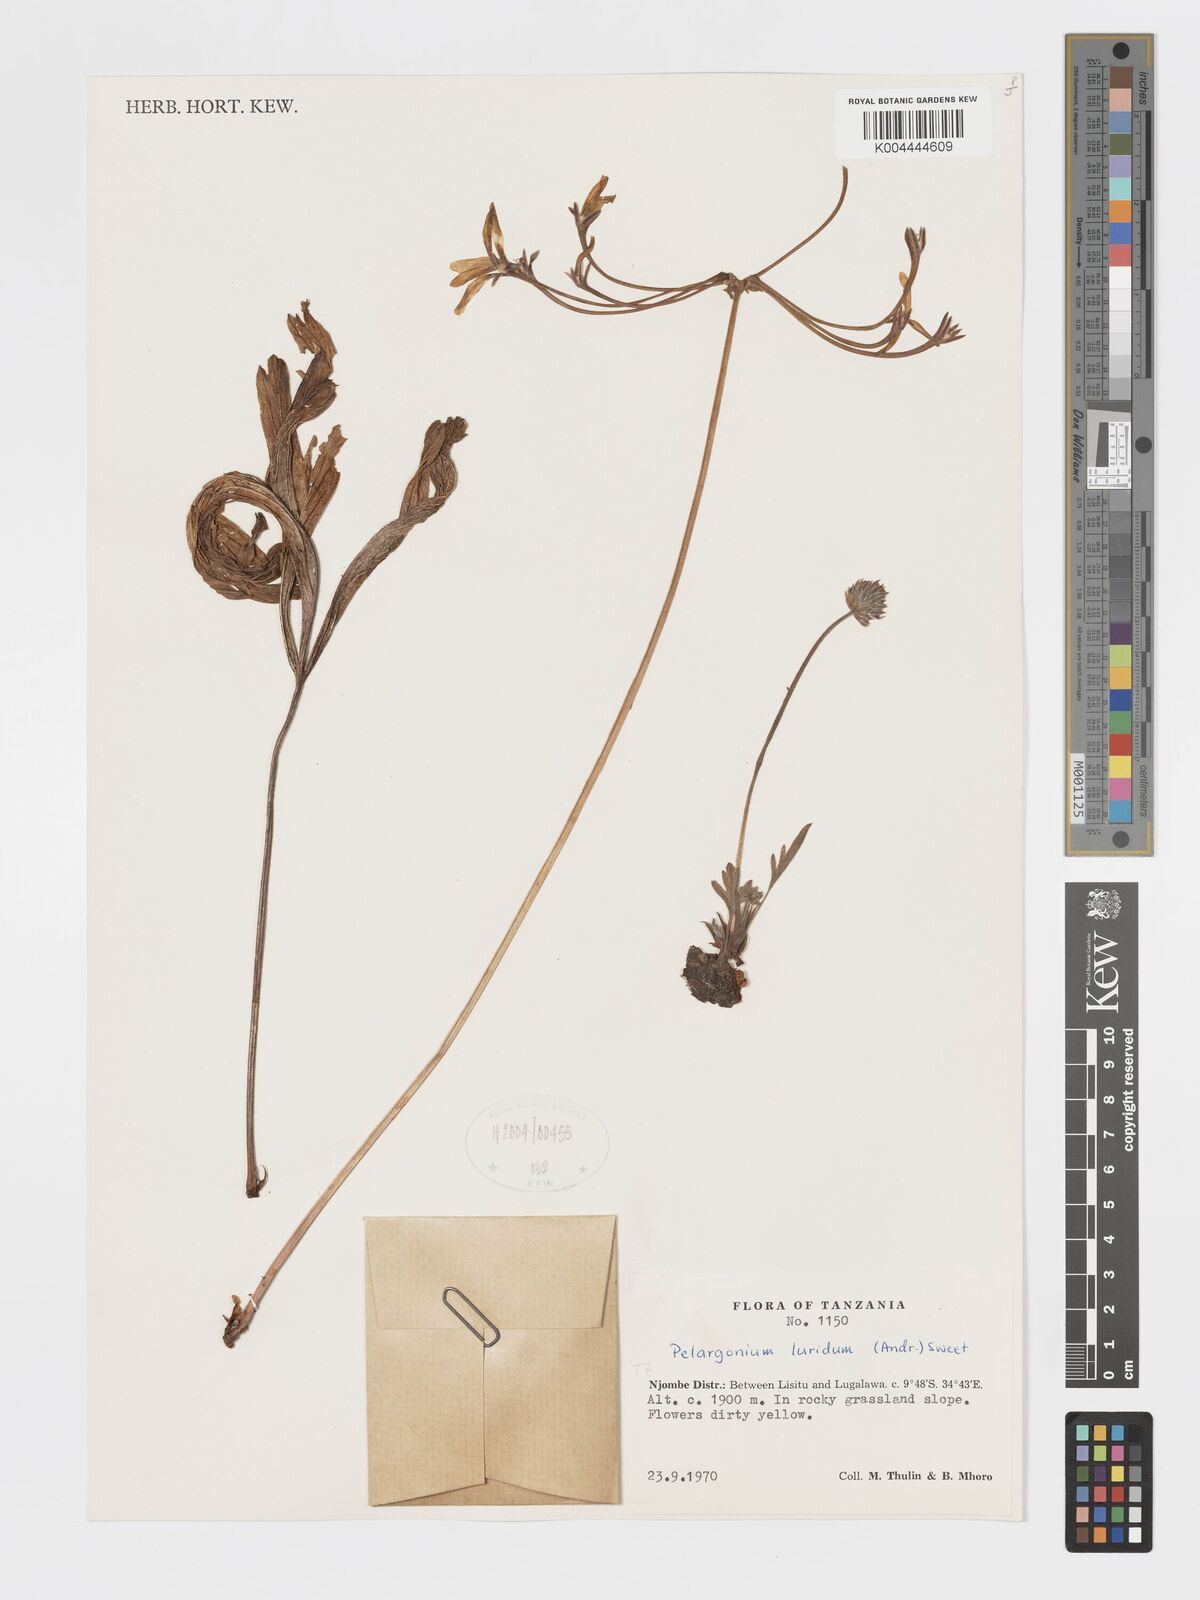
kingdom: Plantae
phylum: Tracheophyta
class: Magnoliopsida
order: Geraniales
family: Geraniaceae
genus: Pelargonium
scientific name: Pelargonium luridum
